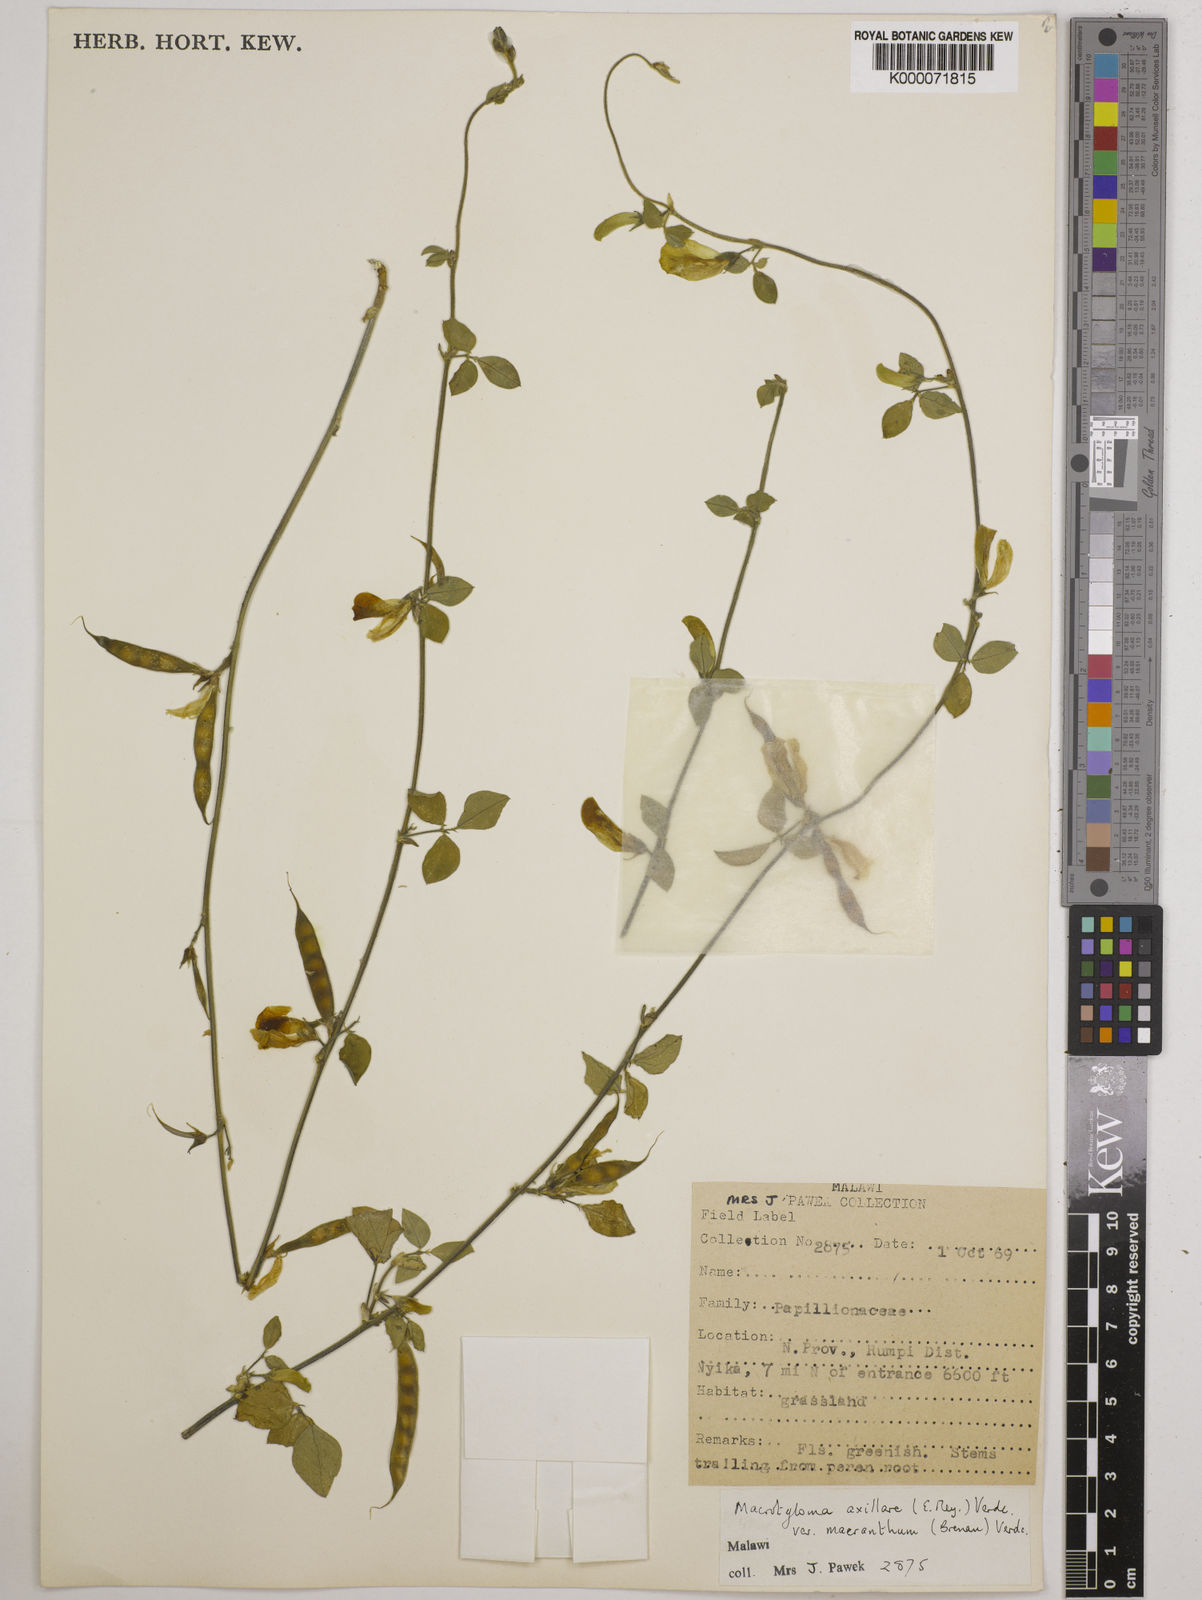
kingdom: Plantae
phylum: Tracheophyta
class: Magnoliopsida
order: Fabales
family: Fabaceae
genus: Macrotyloma
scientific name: Macrotyloma axillare
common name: Perennial horsegram
